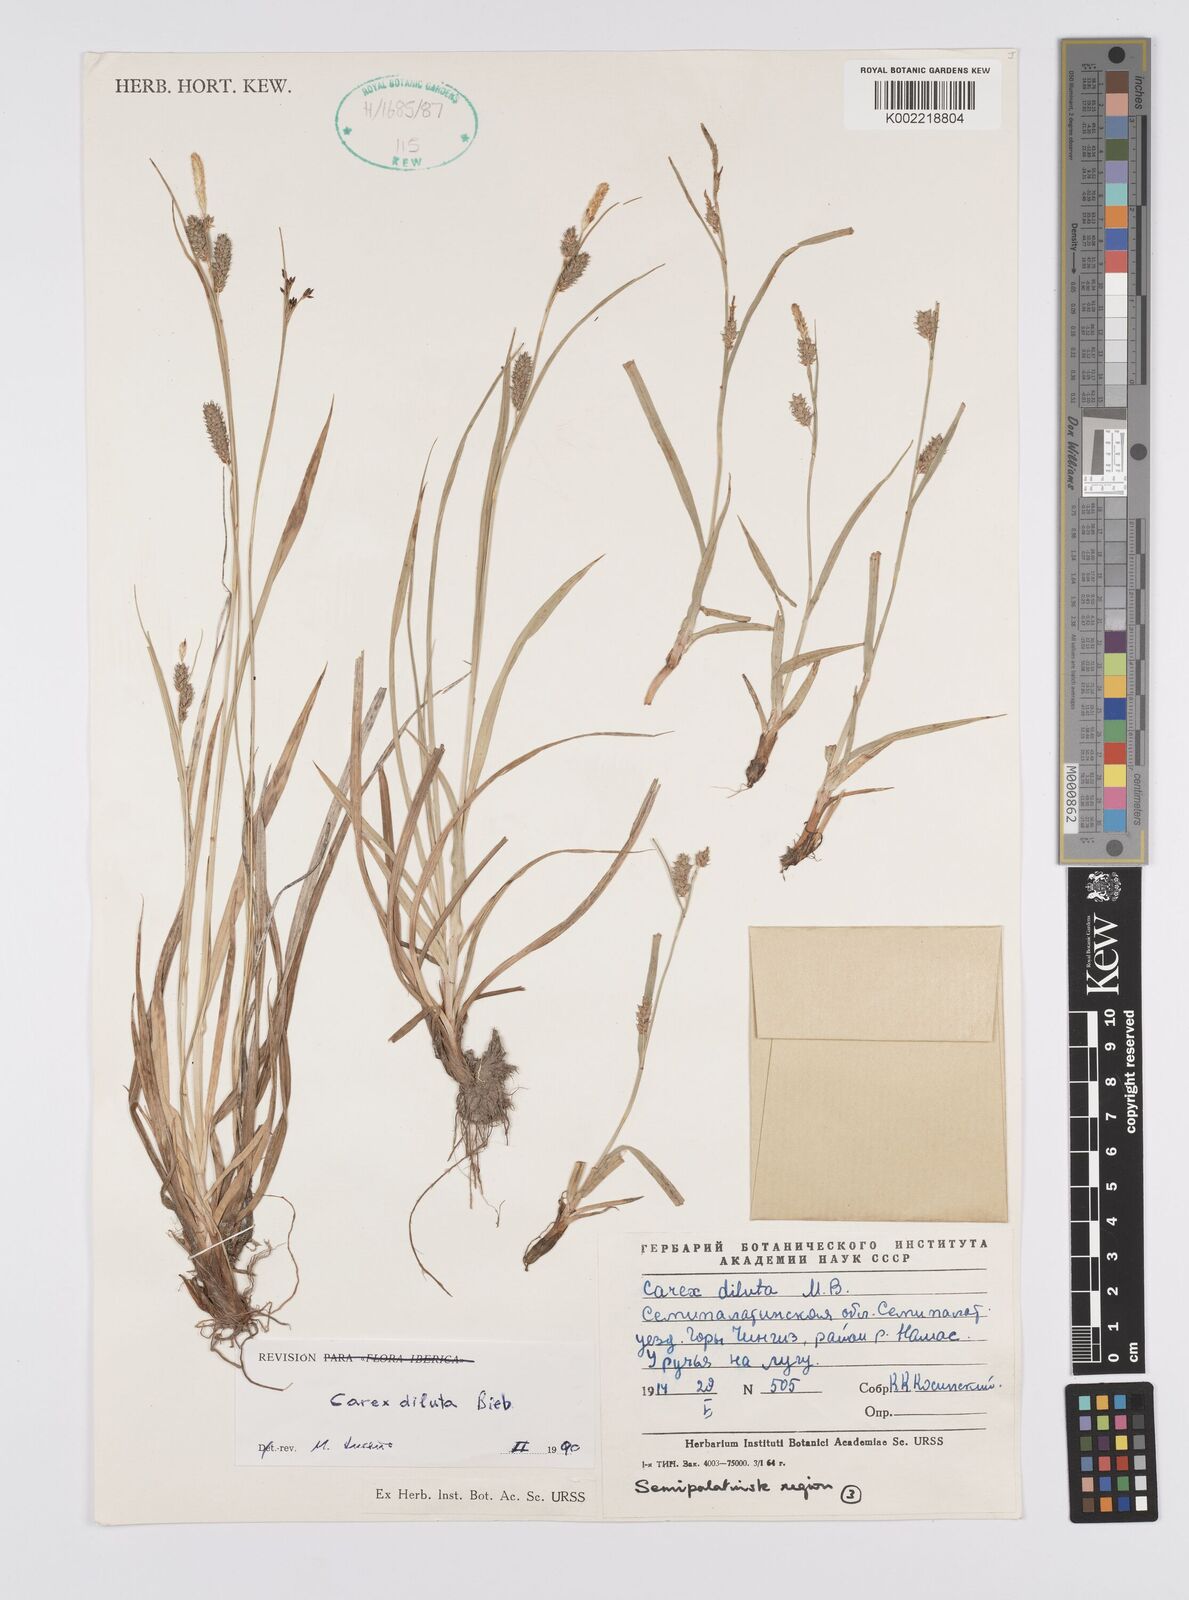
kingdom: Plantae
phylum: Tracheophyta
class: Liliopsida
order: Poales
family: Cyperaceae
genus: Carex
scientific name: Carex diluta
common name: Sedge
